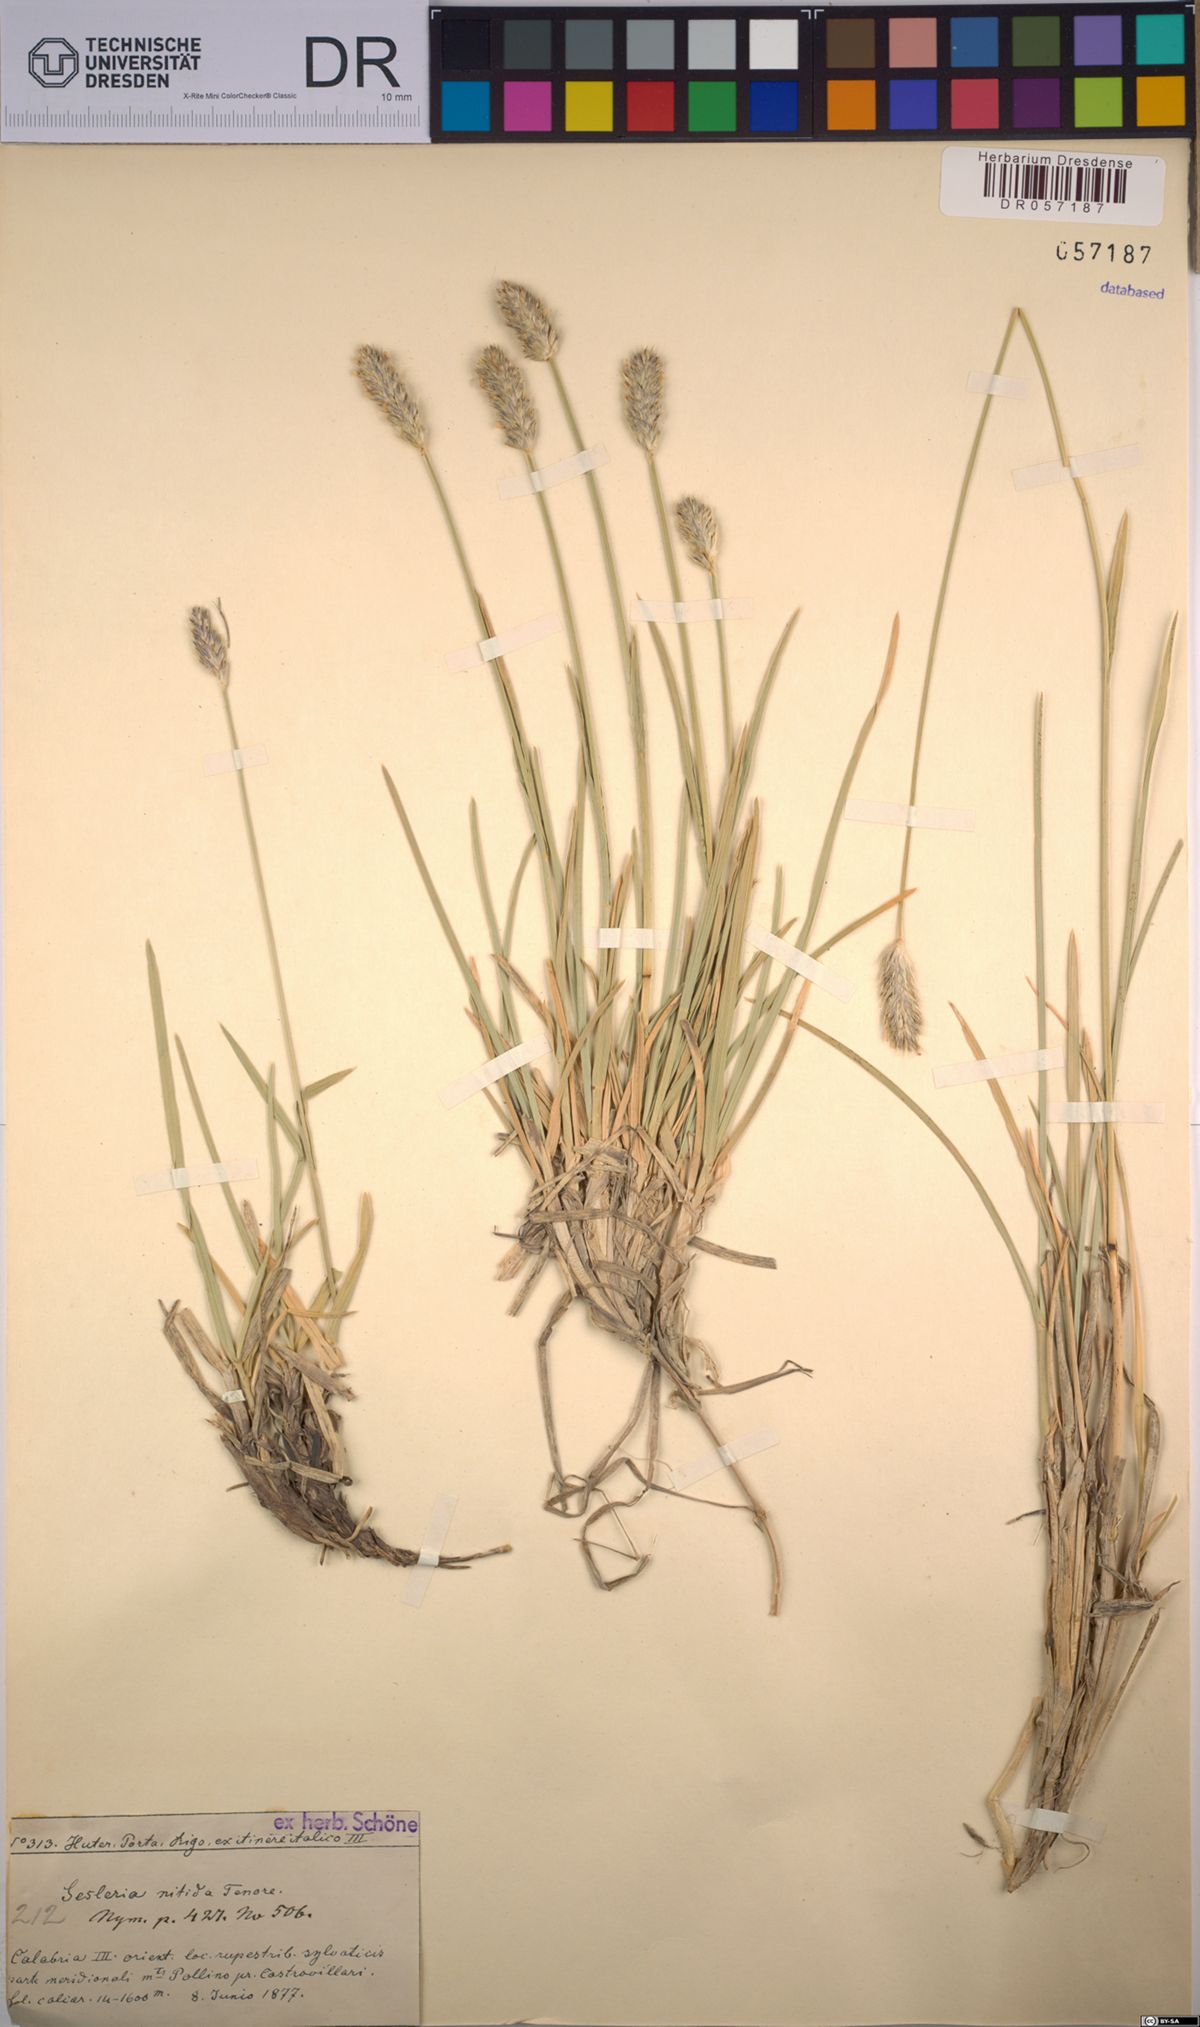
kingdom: Plantae
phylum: Tracheophyta
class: Liliopsida
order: Poales
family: Poaceae
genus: Sesleria
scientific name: Sesleria nitida
